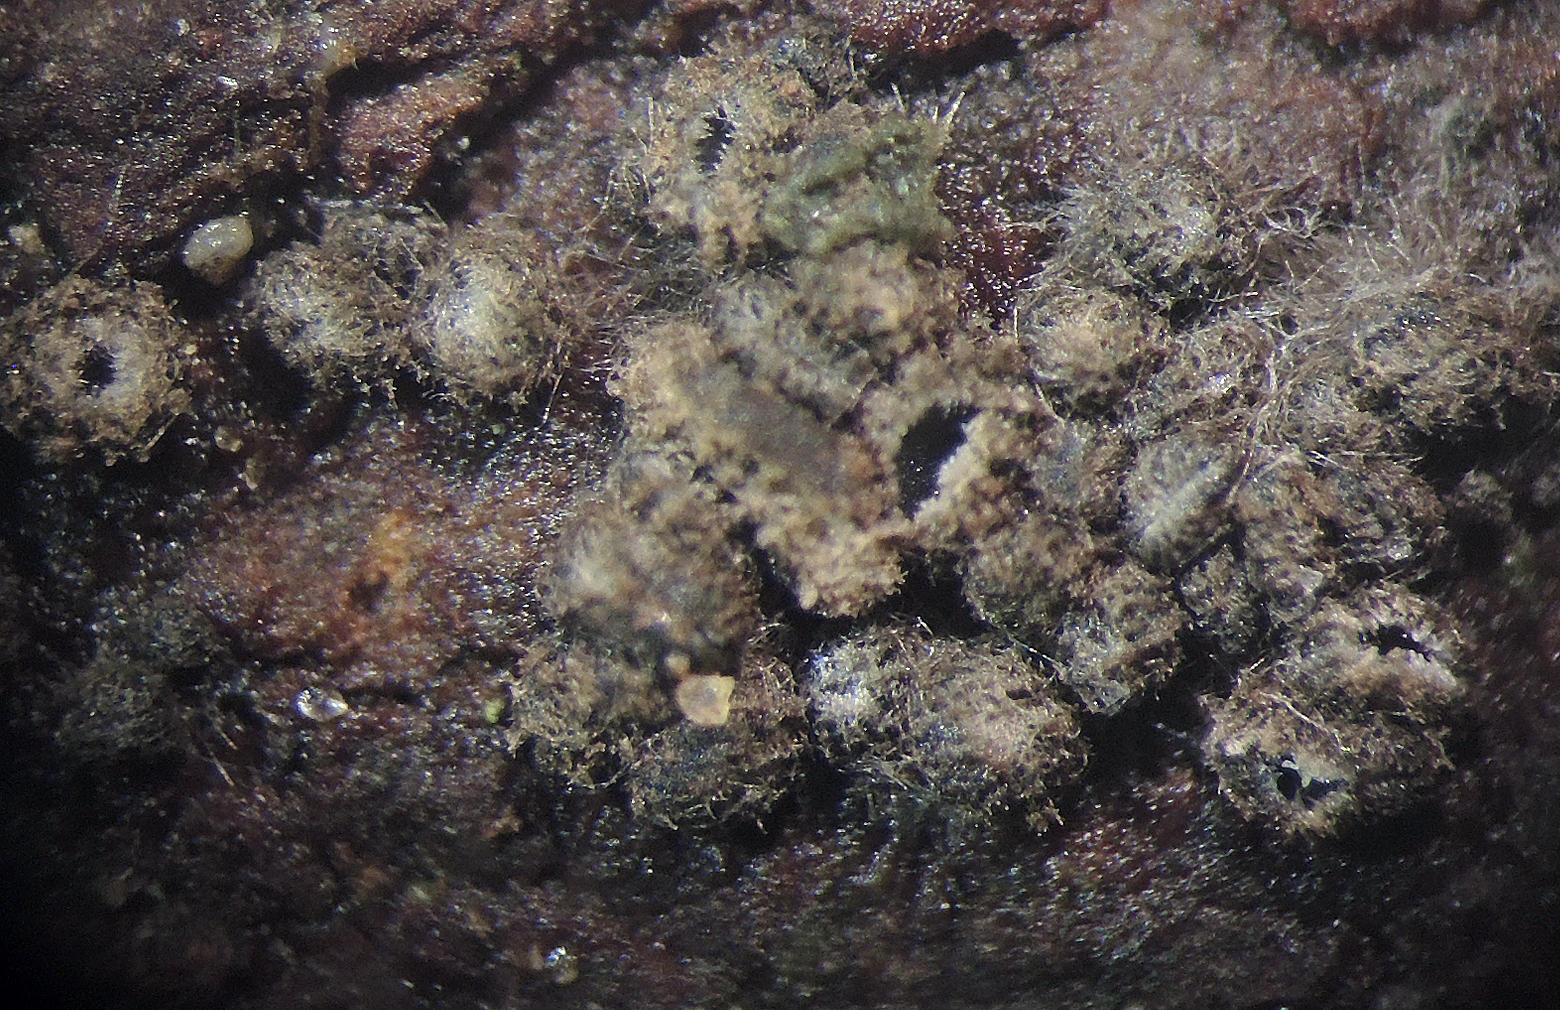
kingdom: Fungi
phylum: Ascomycota
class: Leotiomycetes
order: Helotiales
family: Mollisiaceae
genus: Mollisia
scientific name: Mollisia rosae
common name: rose-gråskive
